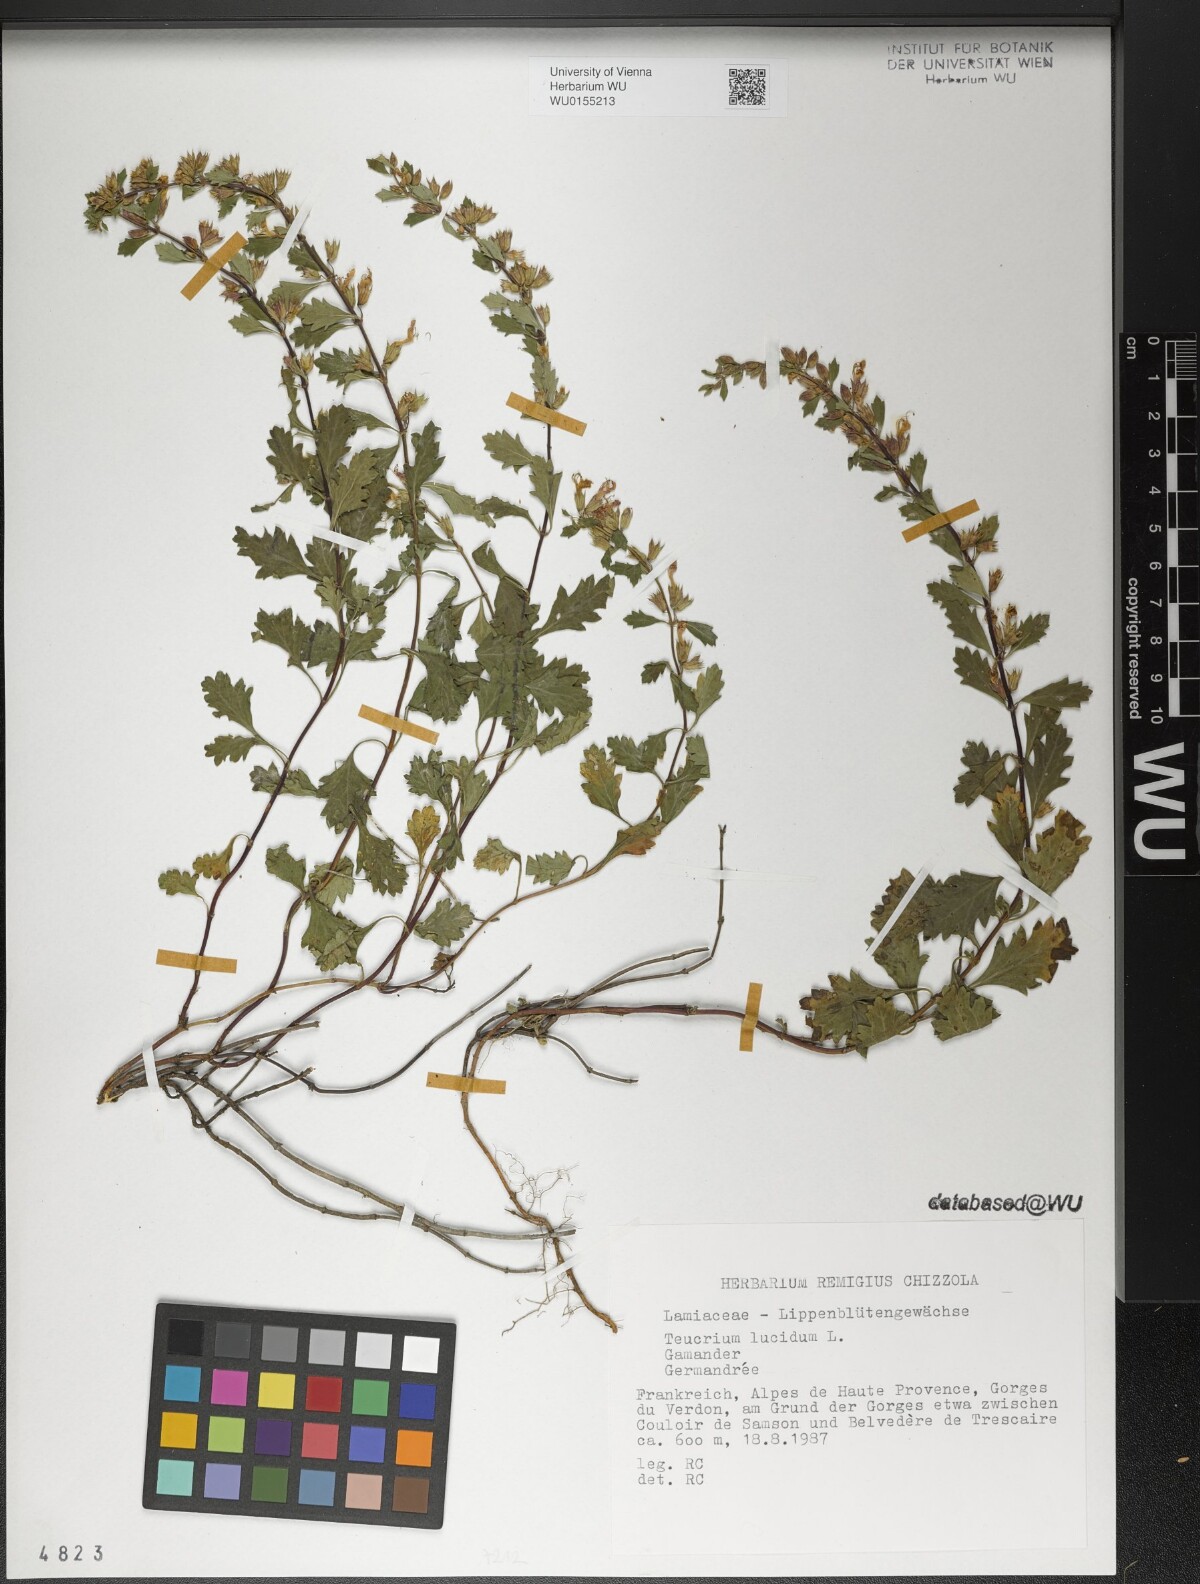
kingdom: Plantae
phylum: Tracheophyta
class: Magnoliopsida
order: Lamiales
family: Lamiaceae
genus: Teucrium
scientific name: Teucrium lucidum
